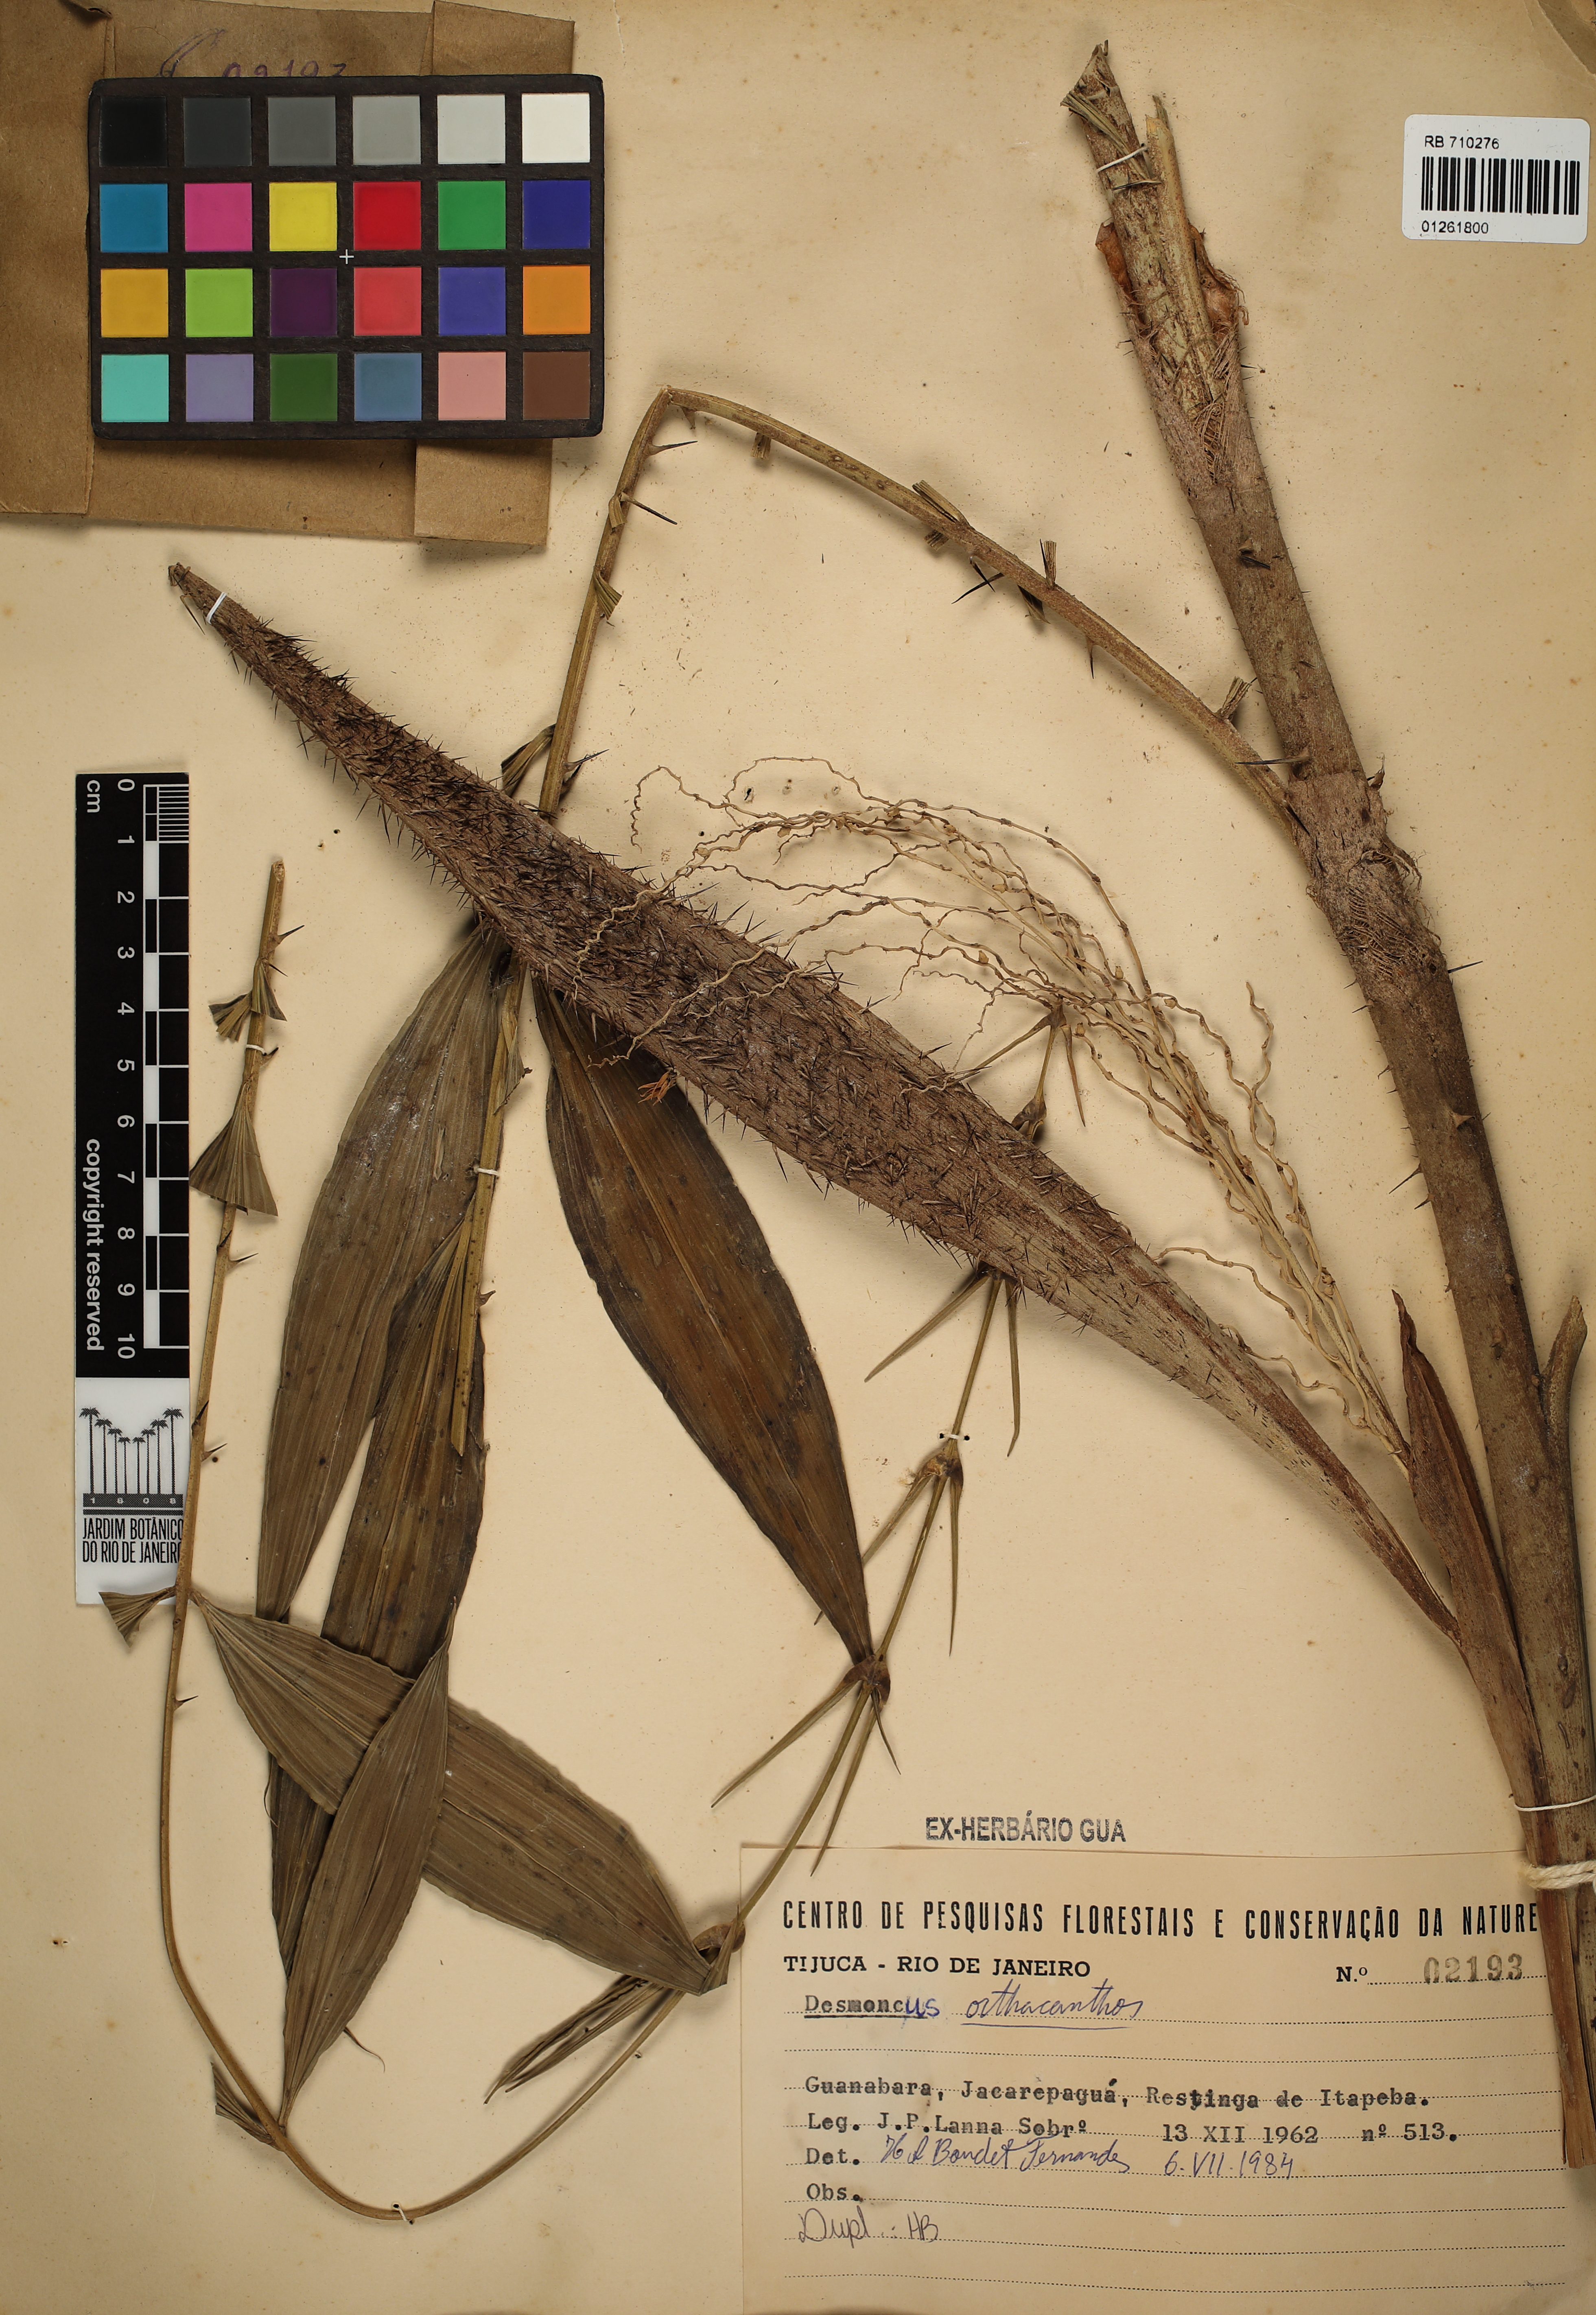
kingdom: Plantae
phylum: Tracheophyta
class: Liliopsida
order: Arecales
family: Arecaceae
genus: Desmoncus
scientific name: Desmoncus orthacanthos
